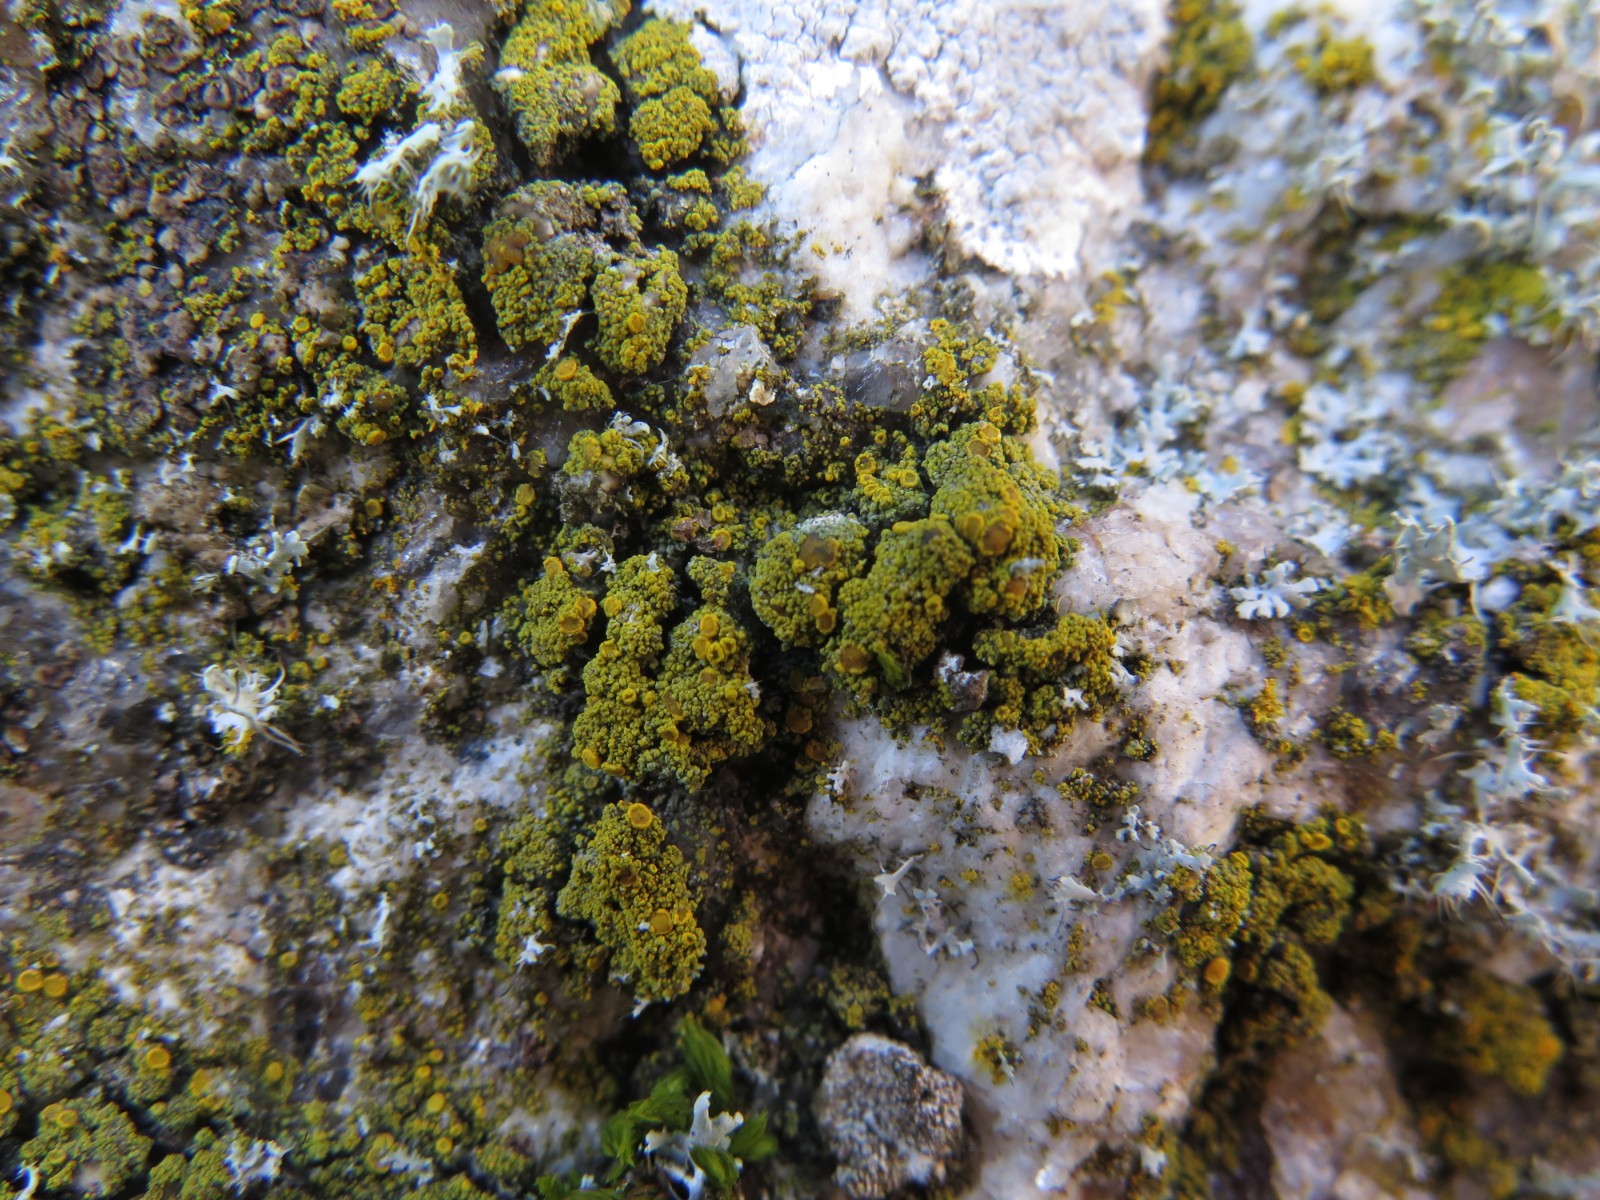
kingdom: Fungi
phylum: Ascomycota
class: Candelariomycetes
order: Candelariales
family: Candelariaceae
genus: Candelariella
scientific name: Candelariella vitellina
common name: almindelig æggeblommelav
